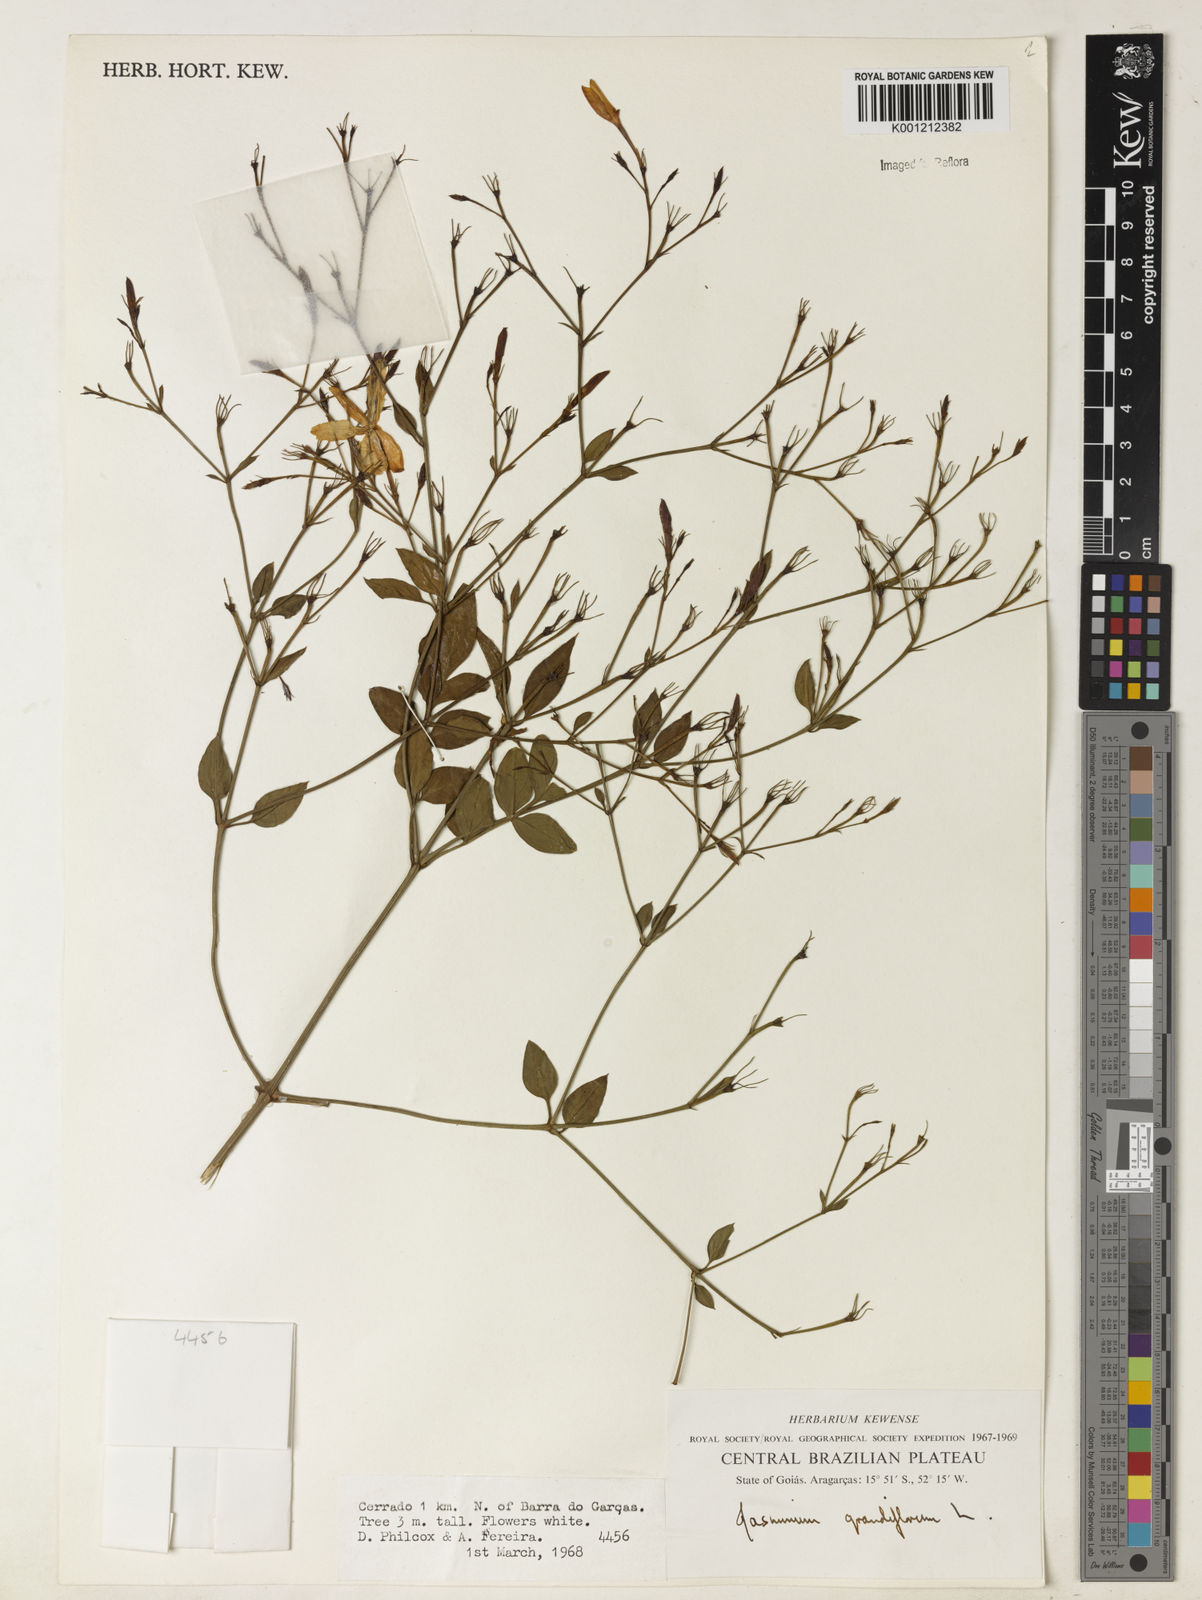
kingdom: Plantae
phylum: Tracheophyta
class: Magnoliopsida
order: Lamiales
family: Oleaceae
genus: Jasminum
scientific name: Jasminum grandiflorum
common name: Catalonian jasmine
